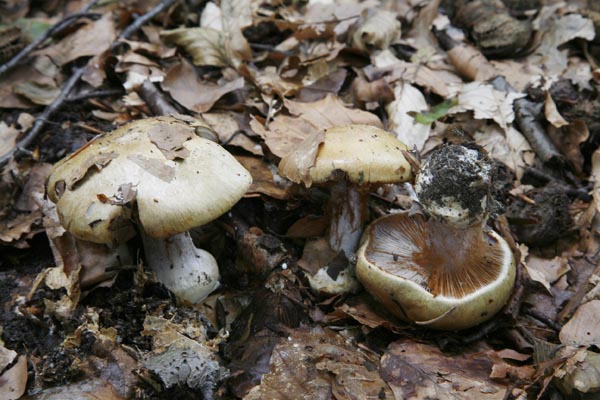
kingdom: Fungi
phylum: Basidiomycota
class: Agaricomycetes
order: Agaricales
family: Cortinariaceae
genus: Cortinarius
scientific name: Cortinarius anserinus
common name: bøge-slørhat
